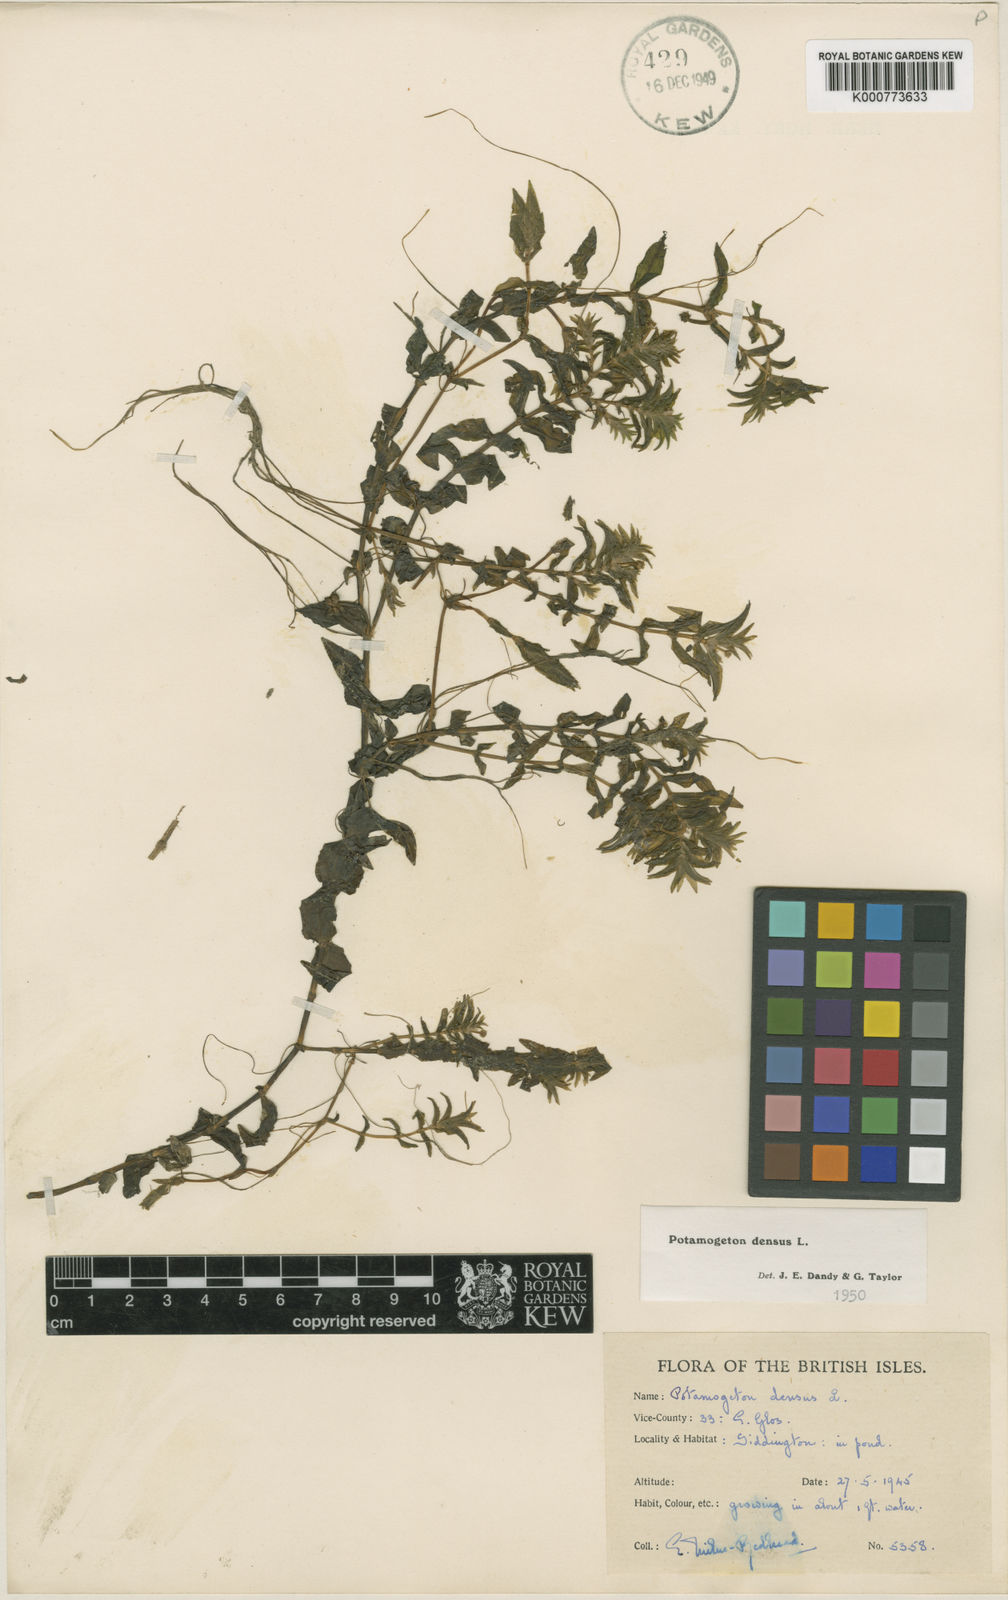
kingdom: Plantae
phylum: Tracheophyta
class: Liliopsida
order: Alismatales
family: Potamogetonaceae
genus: Groenlandia
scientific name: Groenlandia densa
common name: Opposite-leaved pondweed
